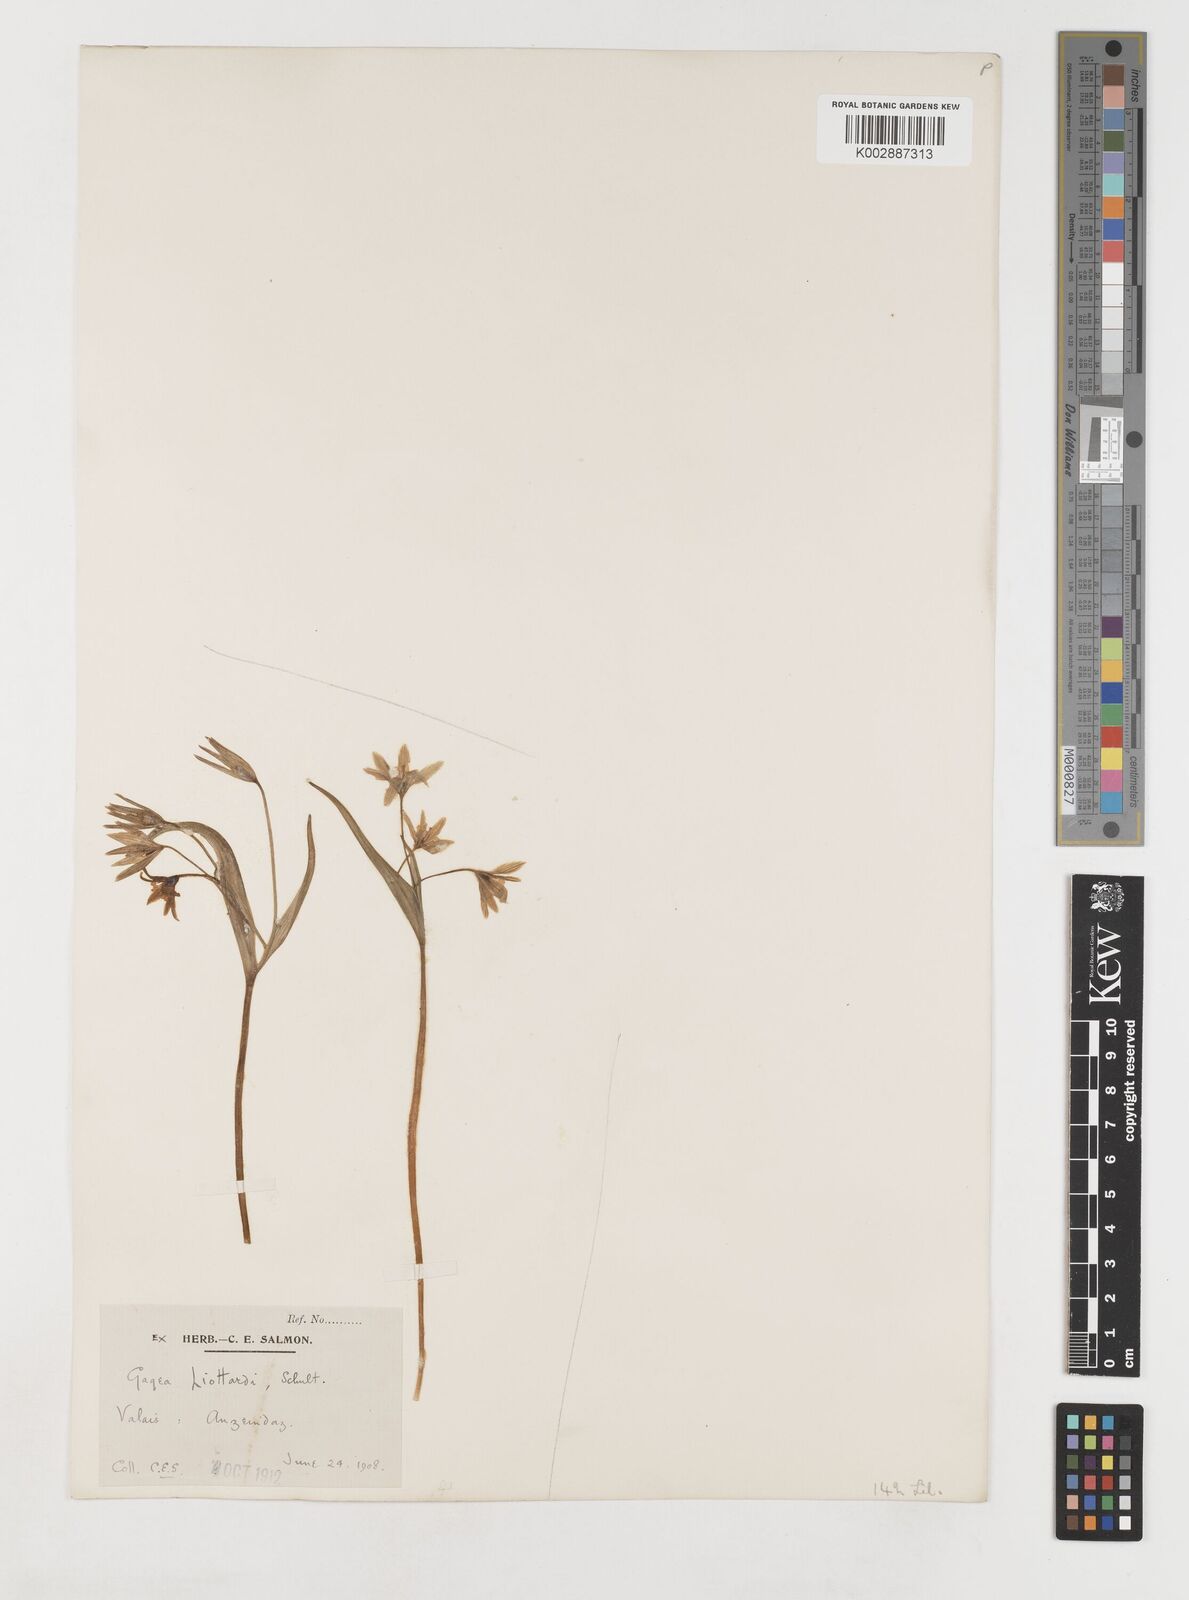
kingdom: Plantae
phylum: Tracheophyta
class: Liliopsida
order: Liliales
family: Liliaceae
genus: Gagea
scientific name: Gagea bohemica
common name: Early star-of-bethlehem
